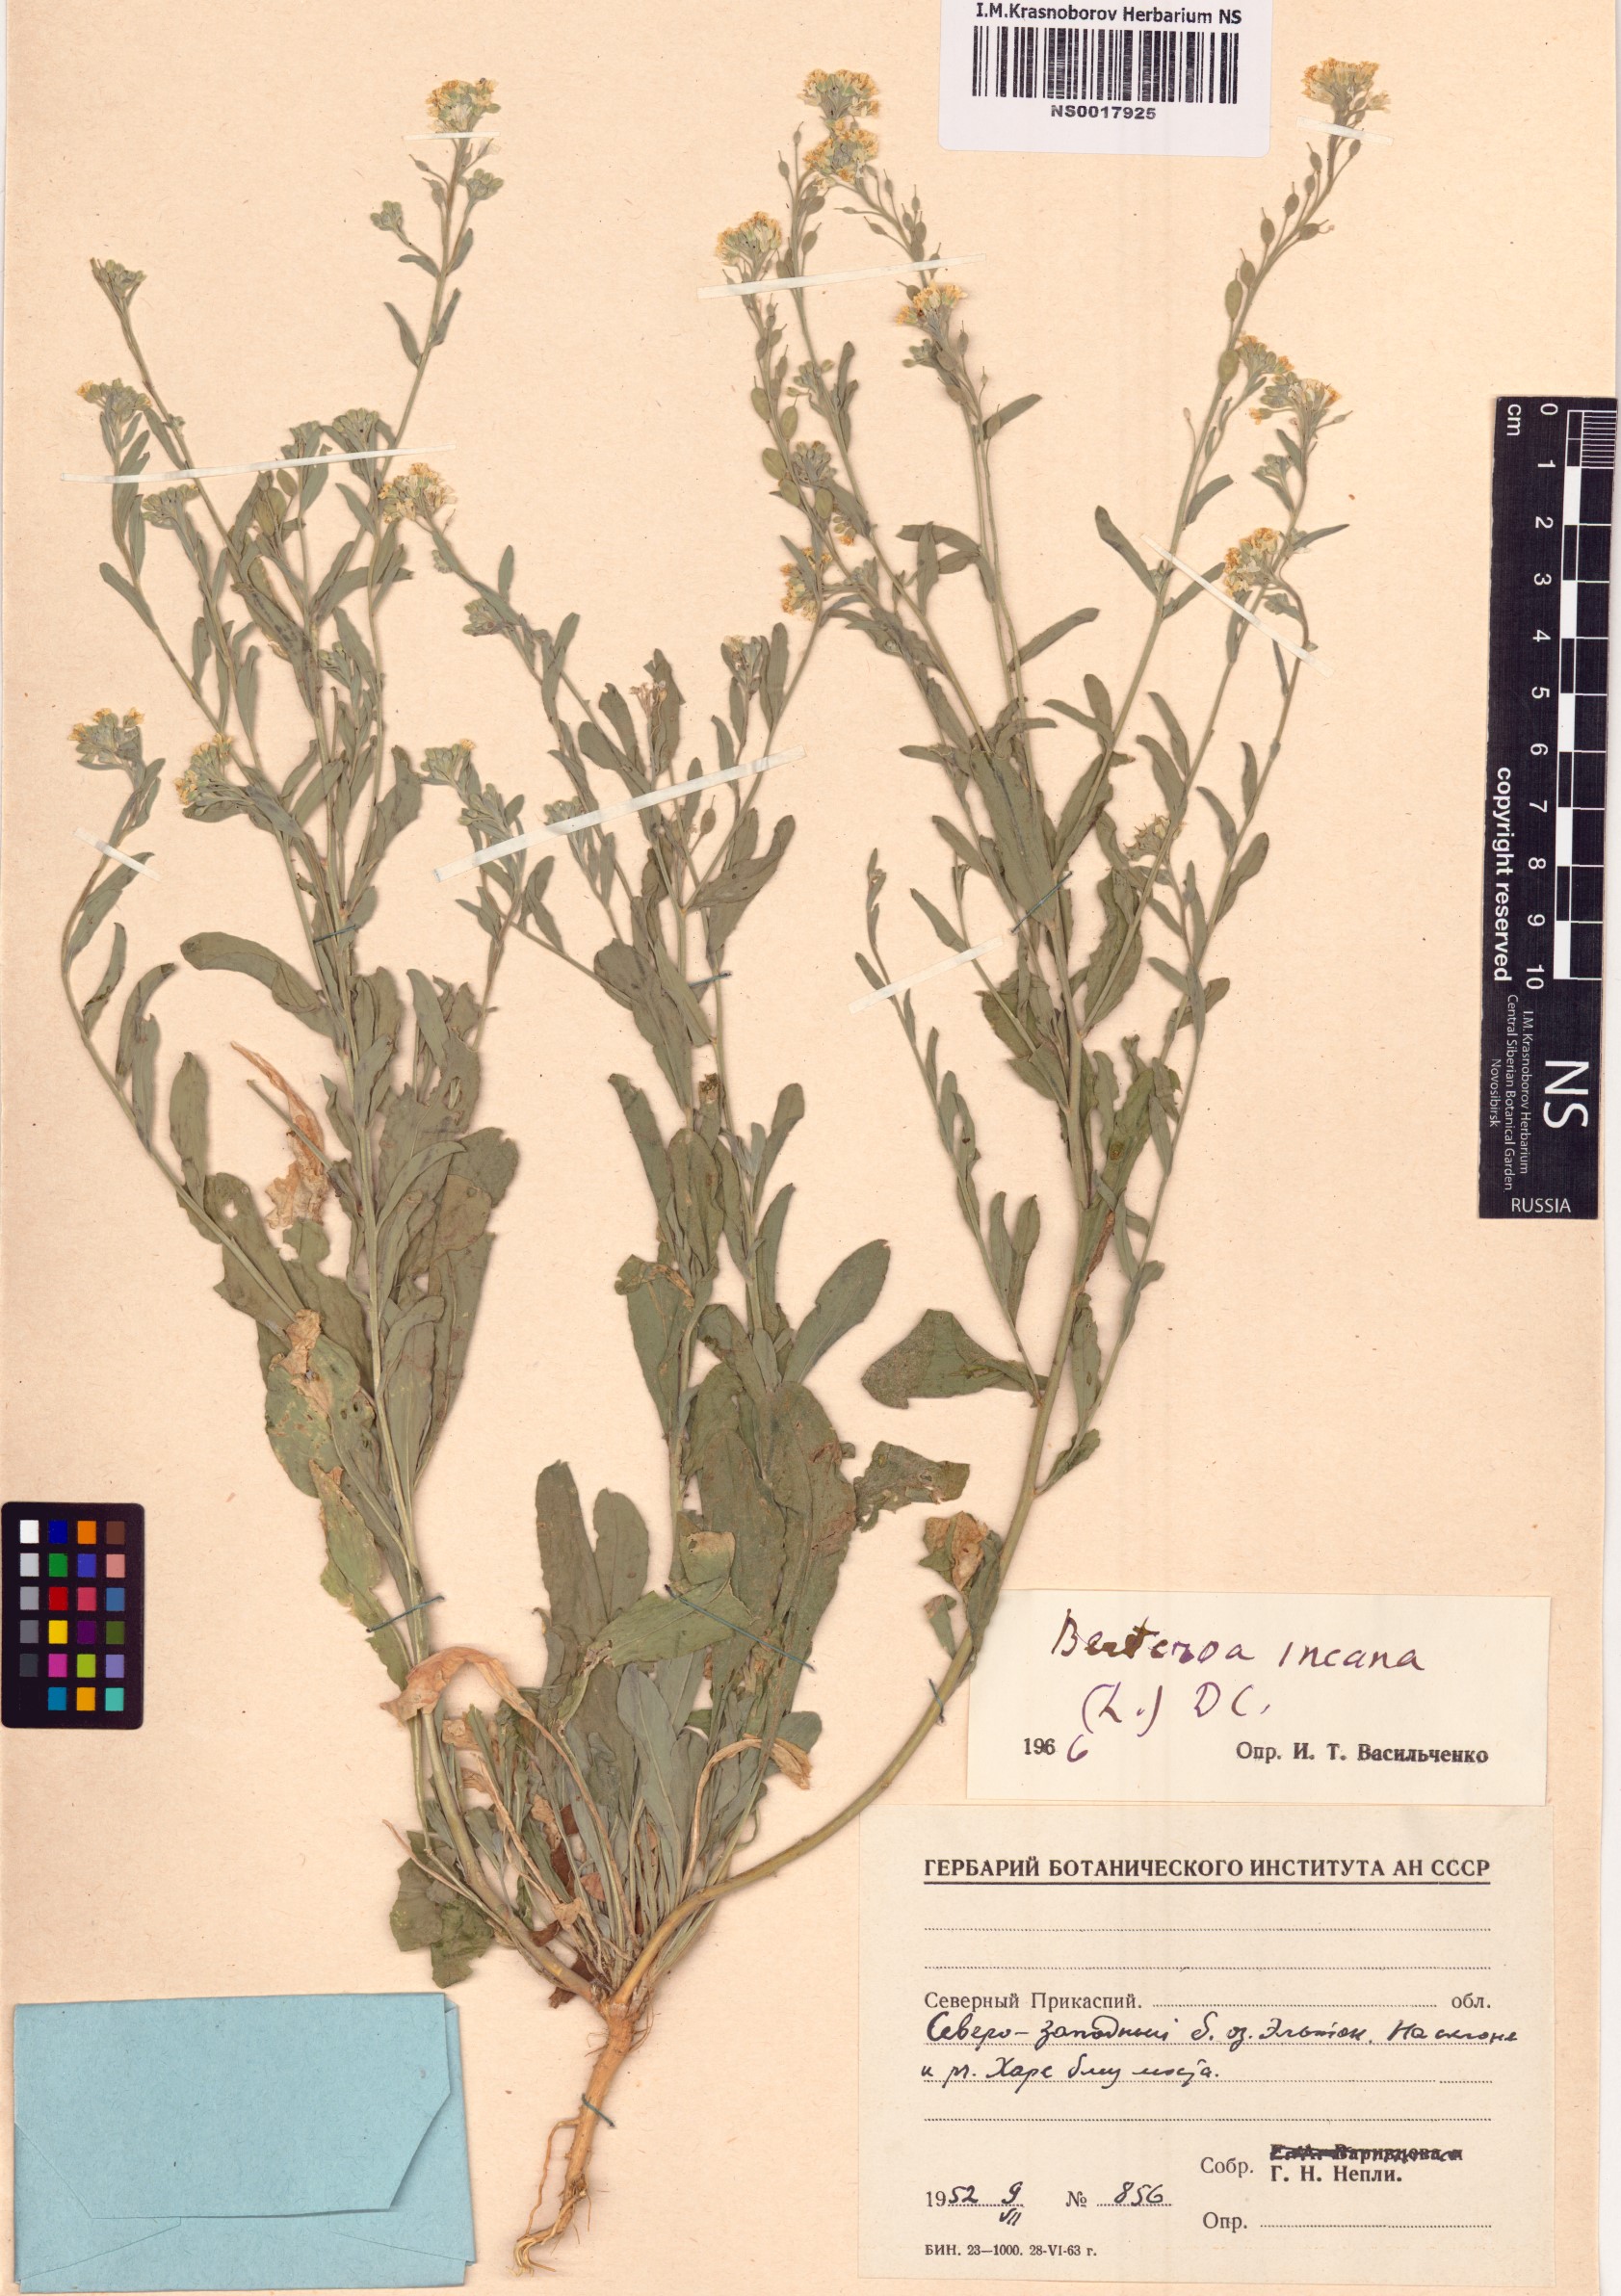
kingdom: Plantae
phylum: Tracheophyta
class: Magnoliopsida
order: Brassicales
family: Brassicaceae
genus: Berteroa
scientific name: Berteroa incana
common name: Hoary alison
